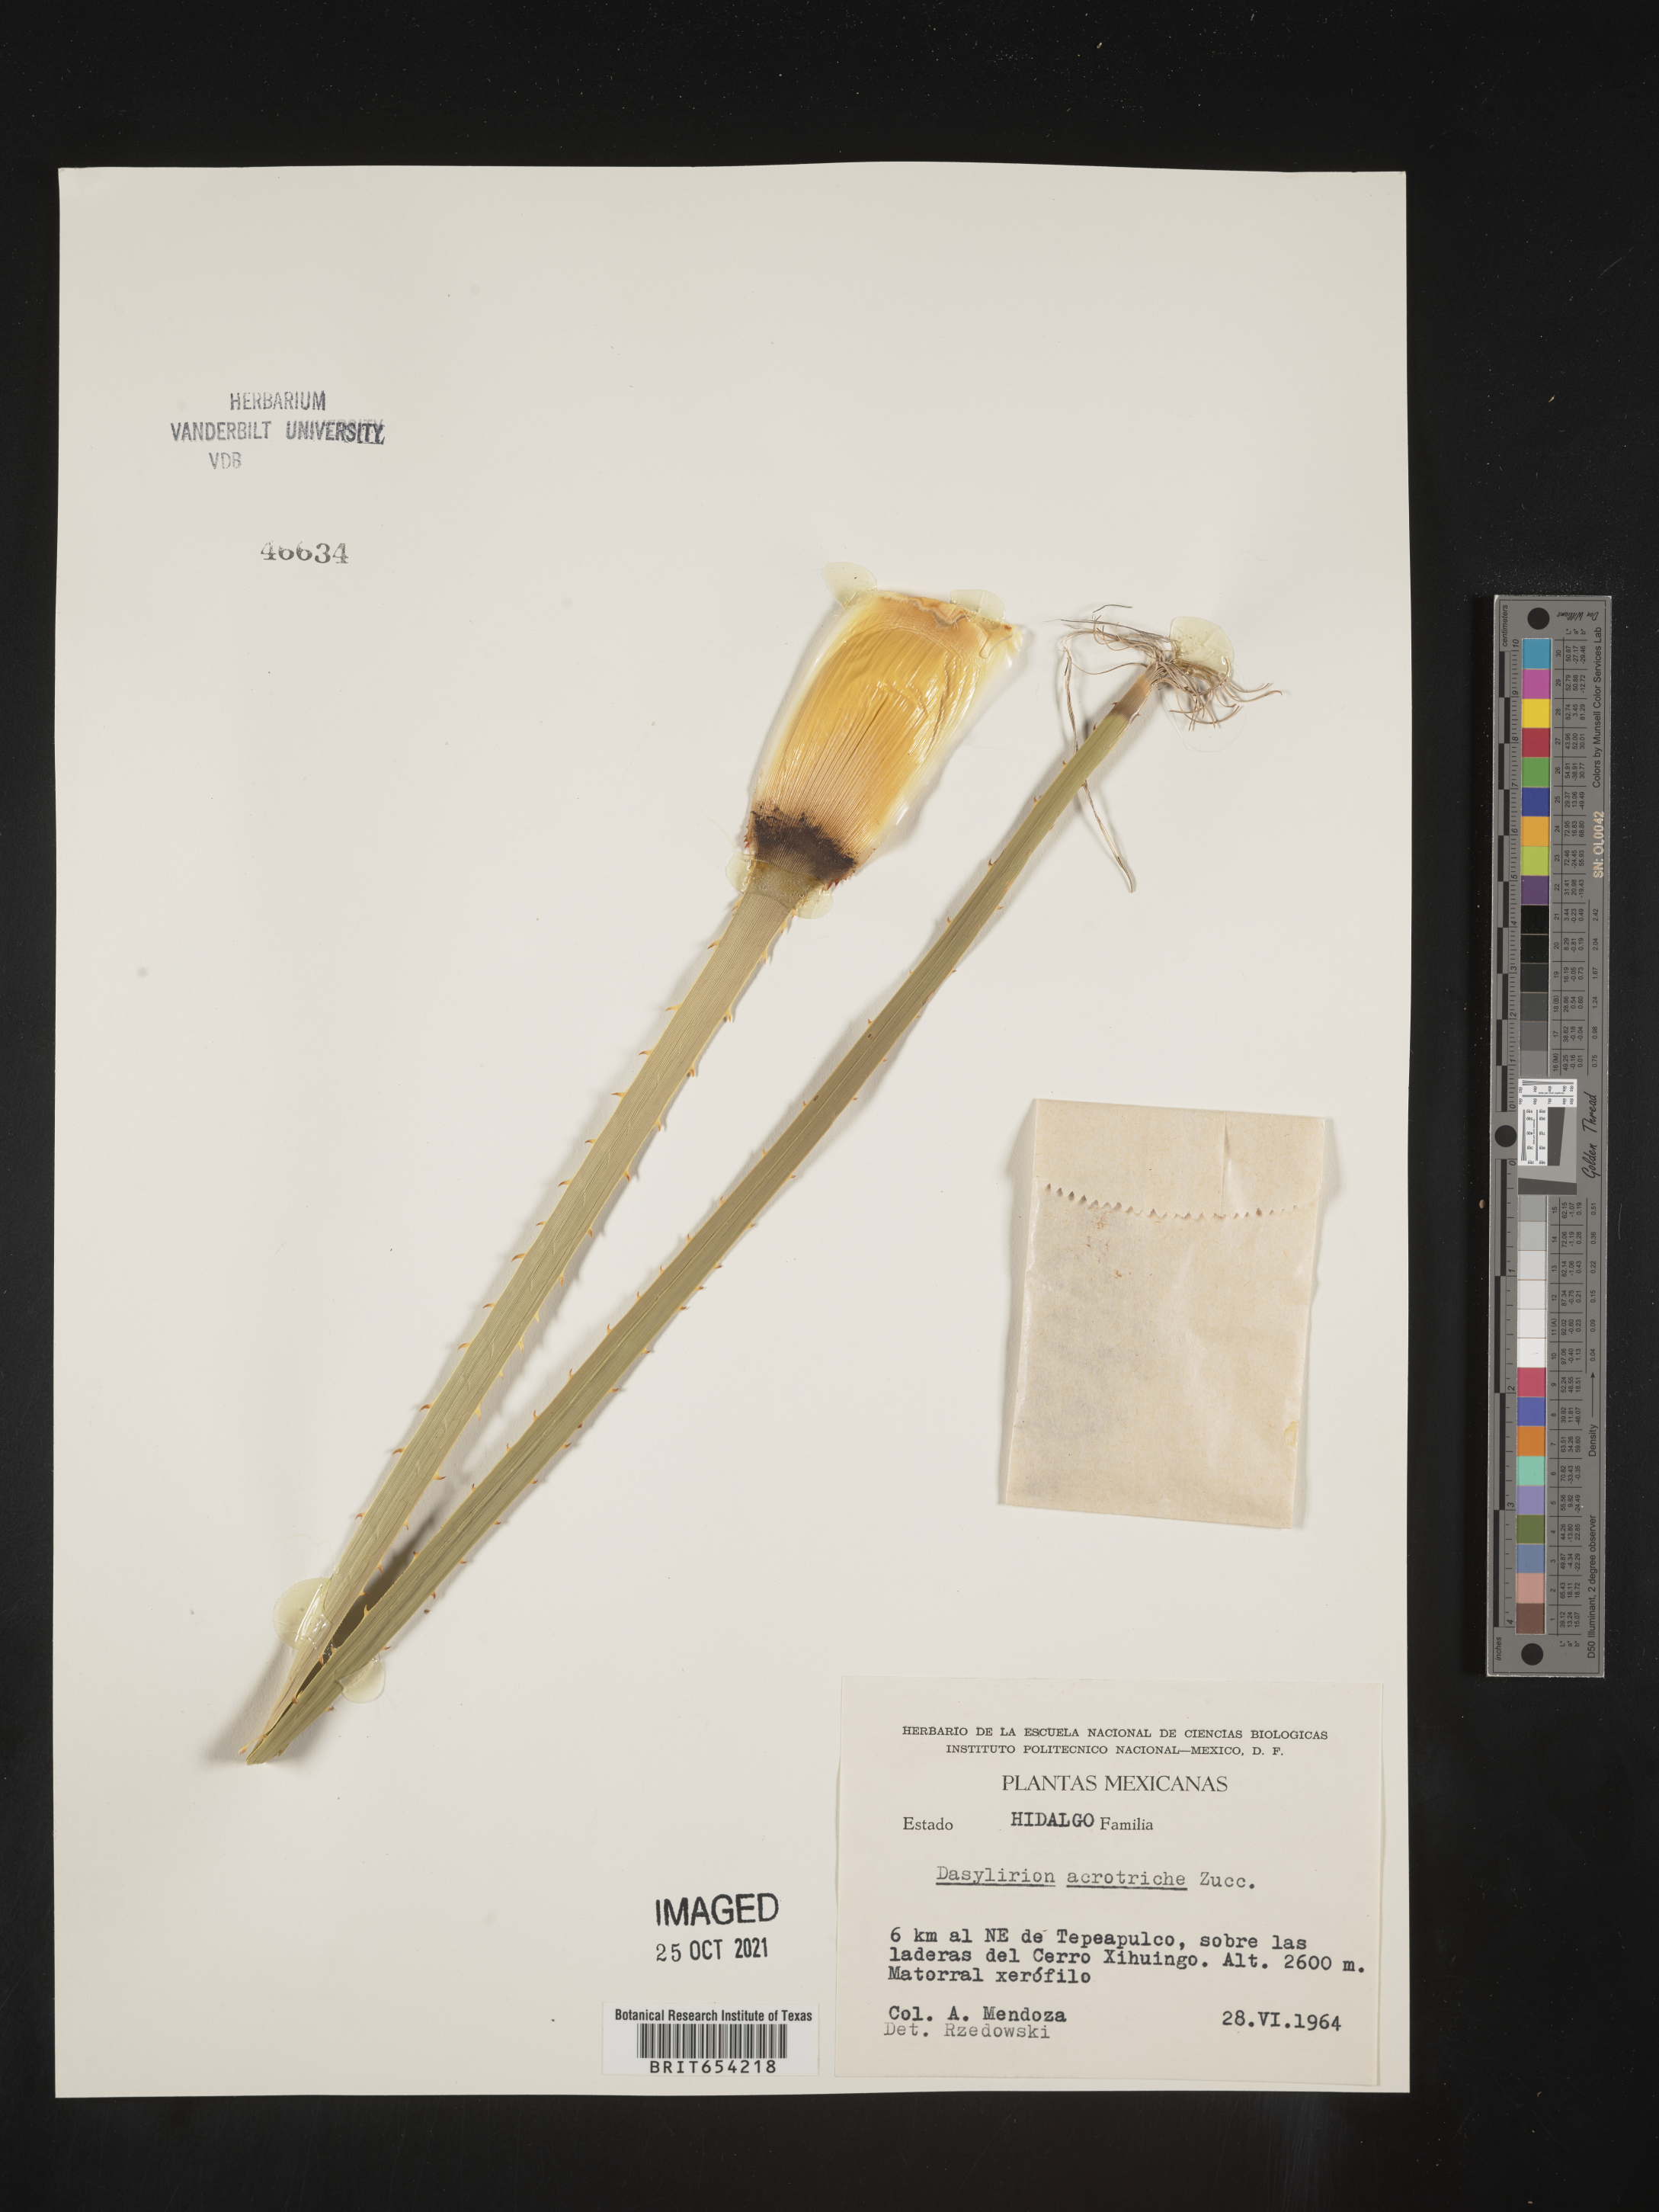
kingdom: Plantae
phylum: Tracheophyta
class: Liliopsida
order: Asparagales
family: Asparagaceae
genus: Dasylirion
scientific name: Dasylirion
